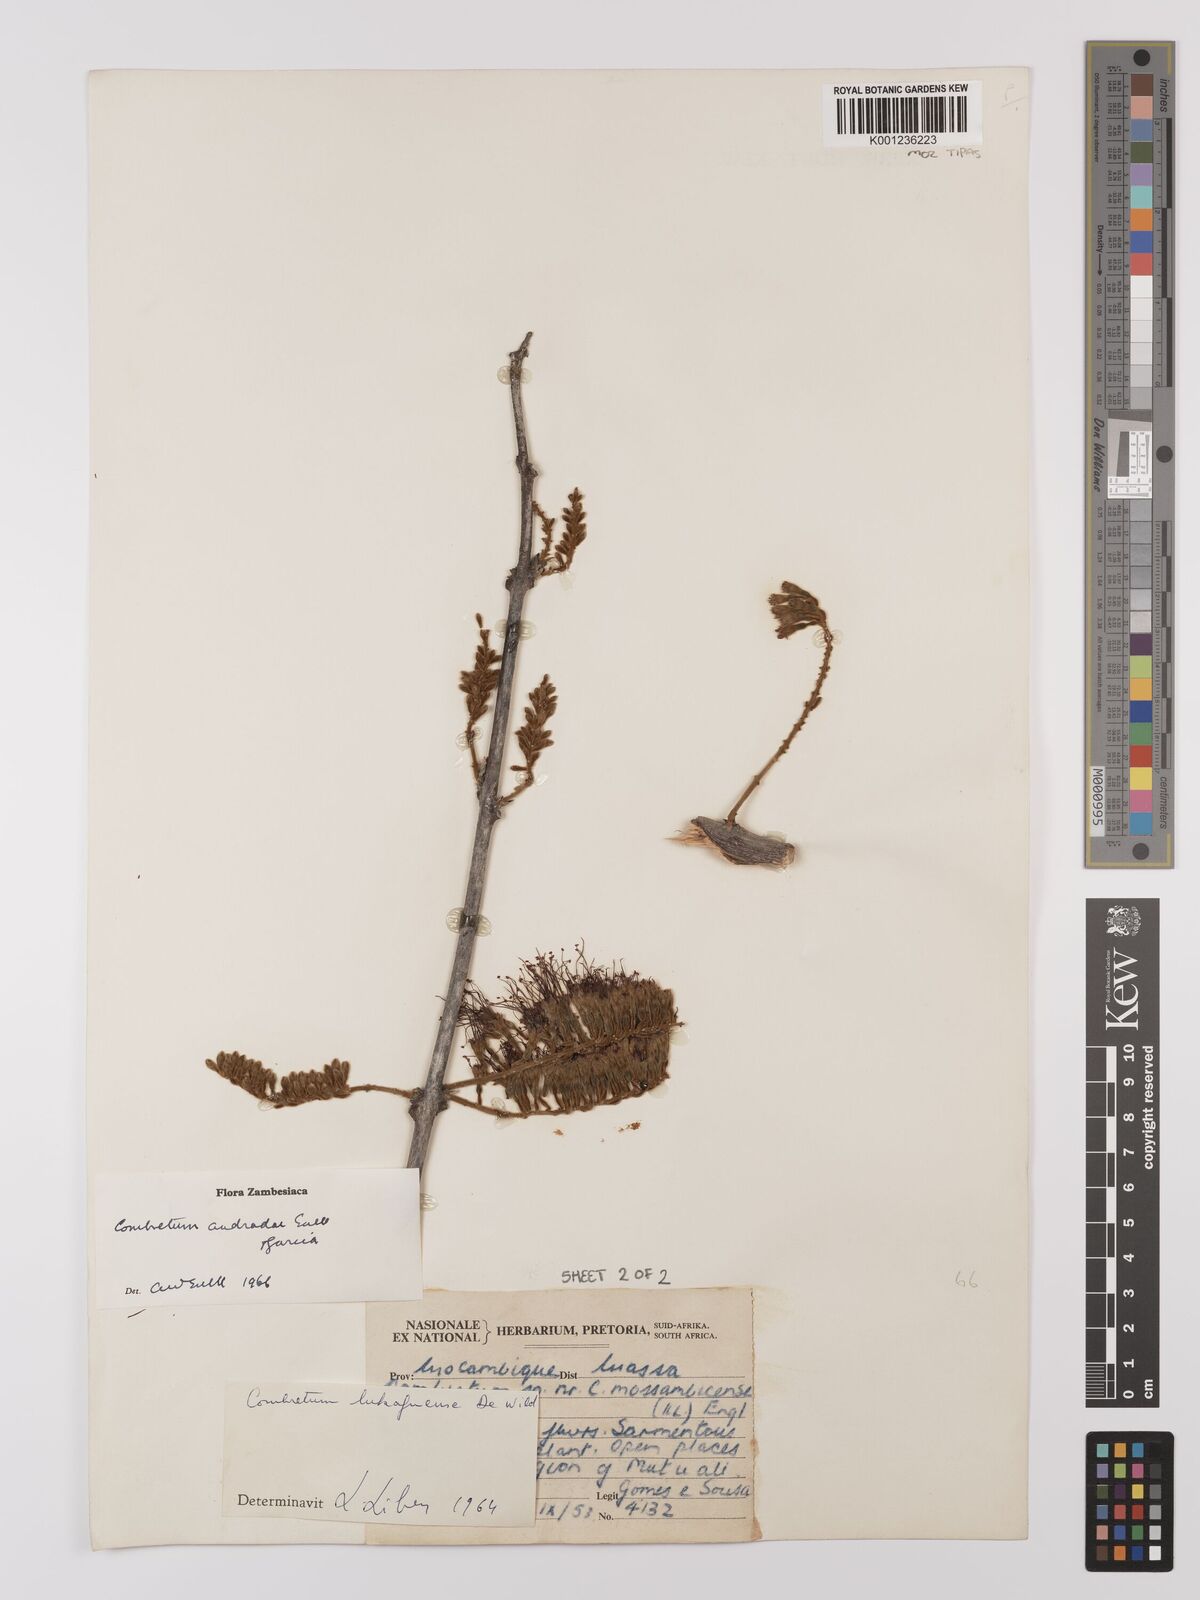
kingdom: Plantae
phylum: Tracheophyta
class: Magnoliopsida
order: Myrtales
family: Combretaceae
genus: Combretum
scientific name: Combretum andradae
